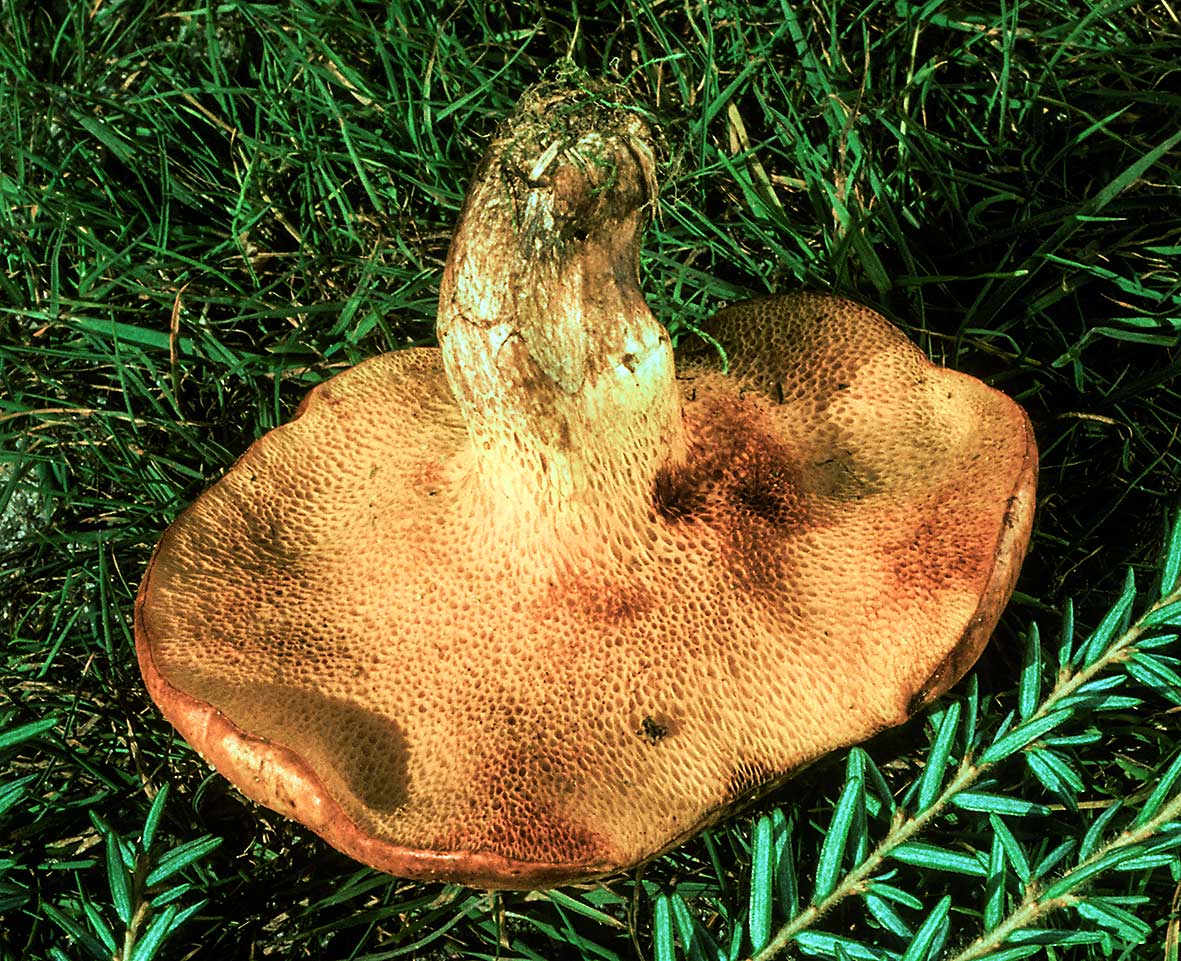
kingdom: Fungi
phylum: Basidiomycota
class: Agaricomycetes
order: Boletales
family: Suillaceae
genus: Suillus
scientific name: Suillus tridentinus
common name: orangeporet slimrørhat
